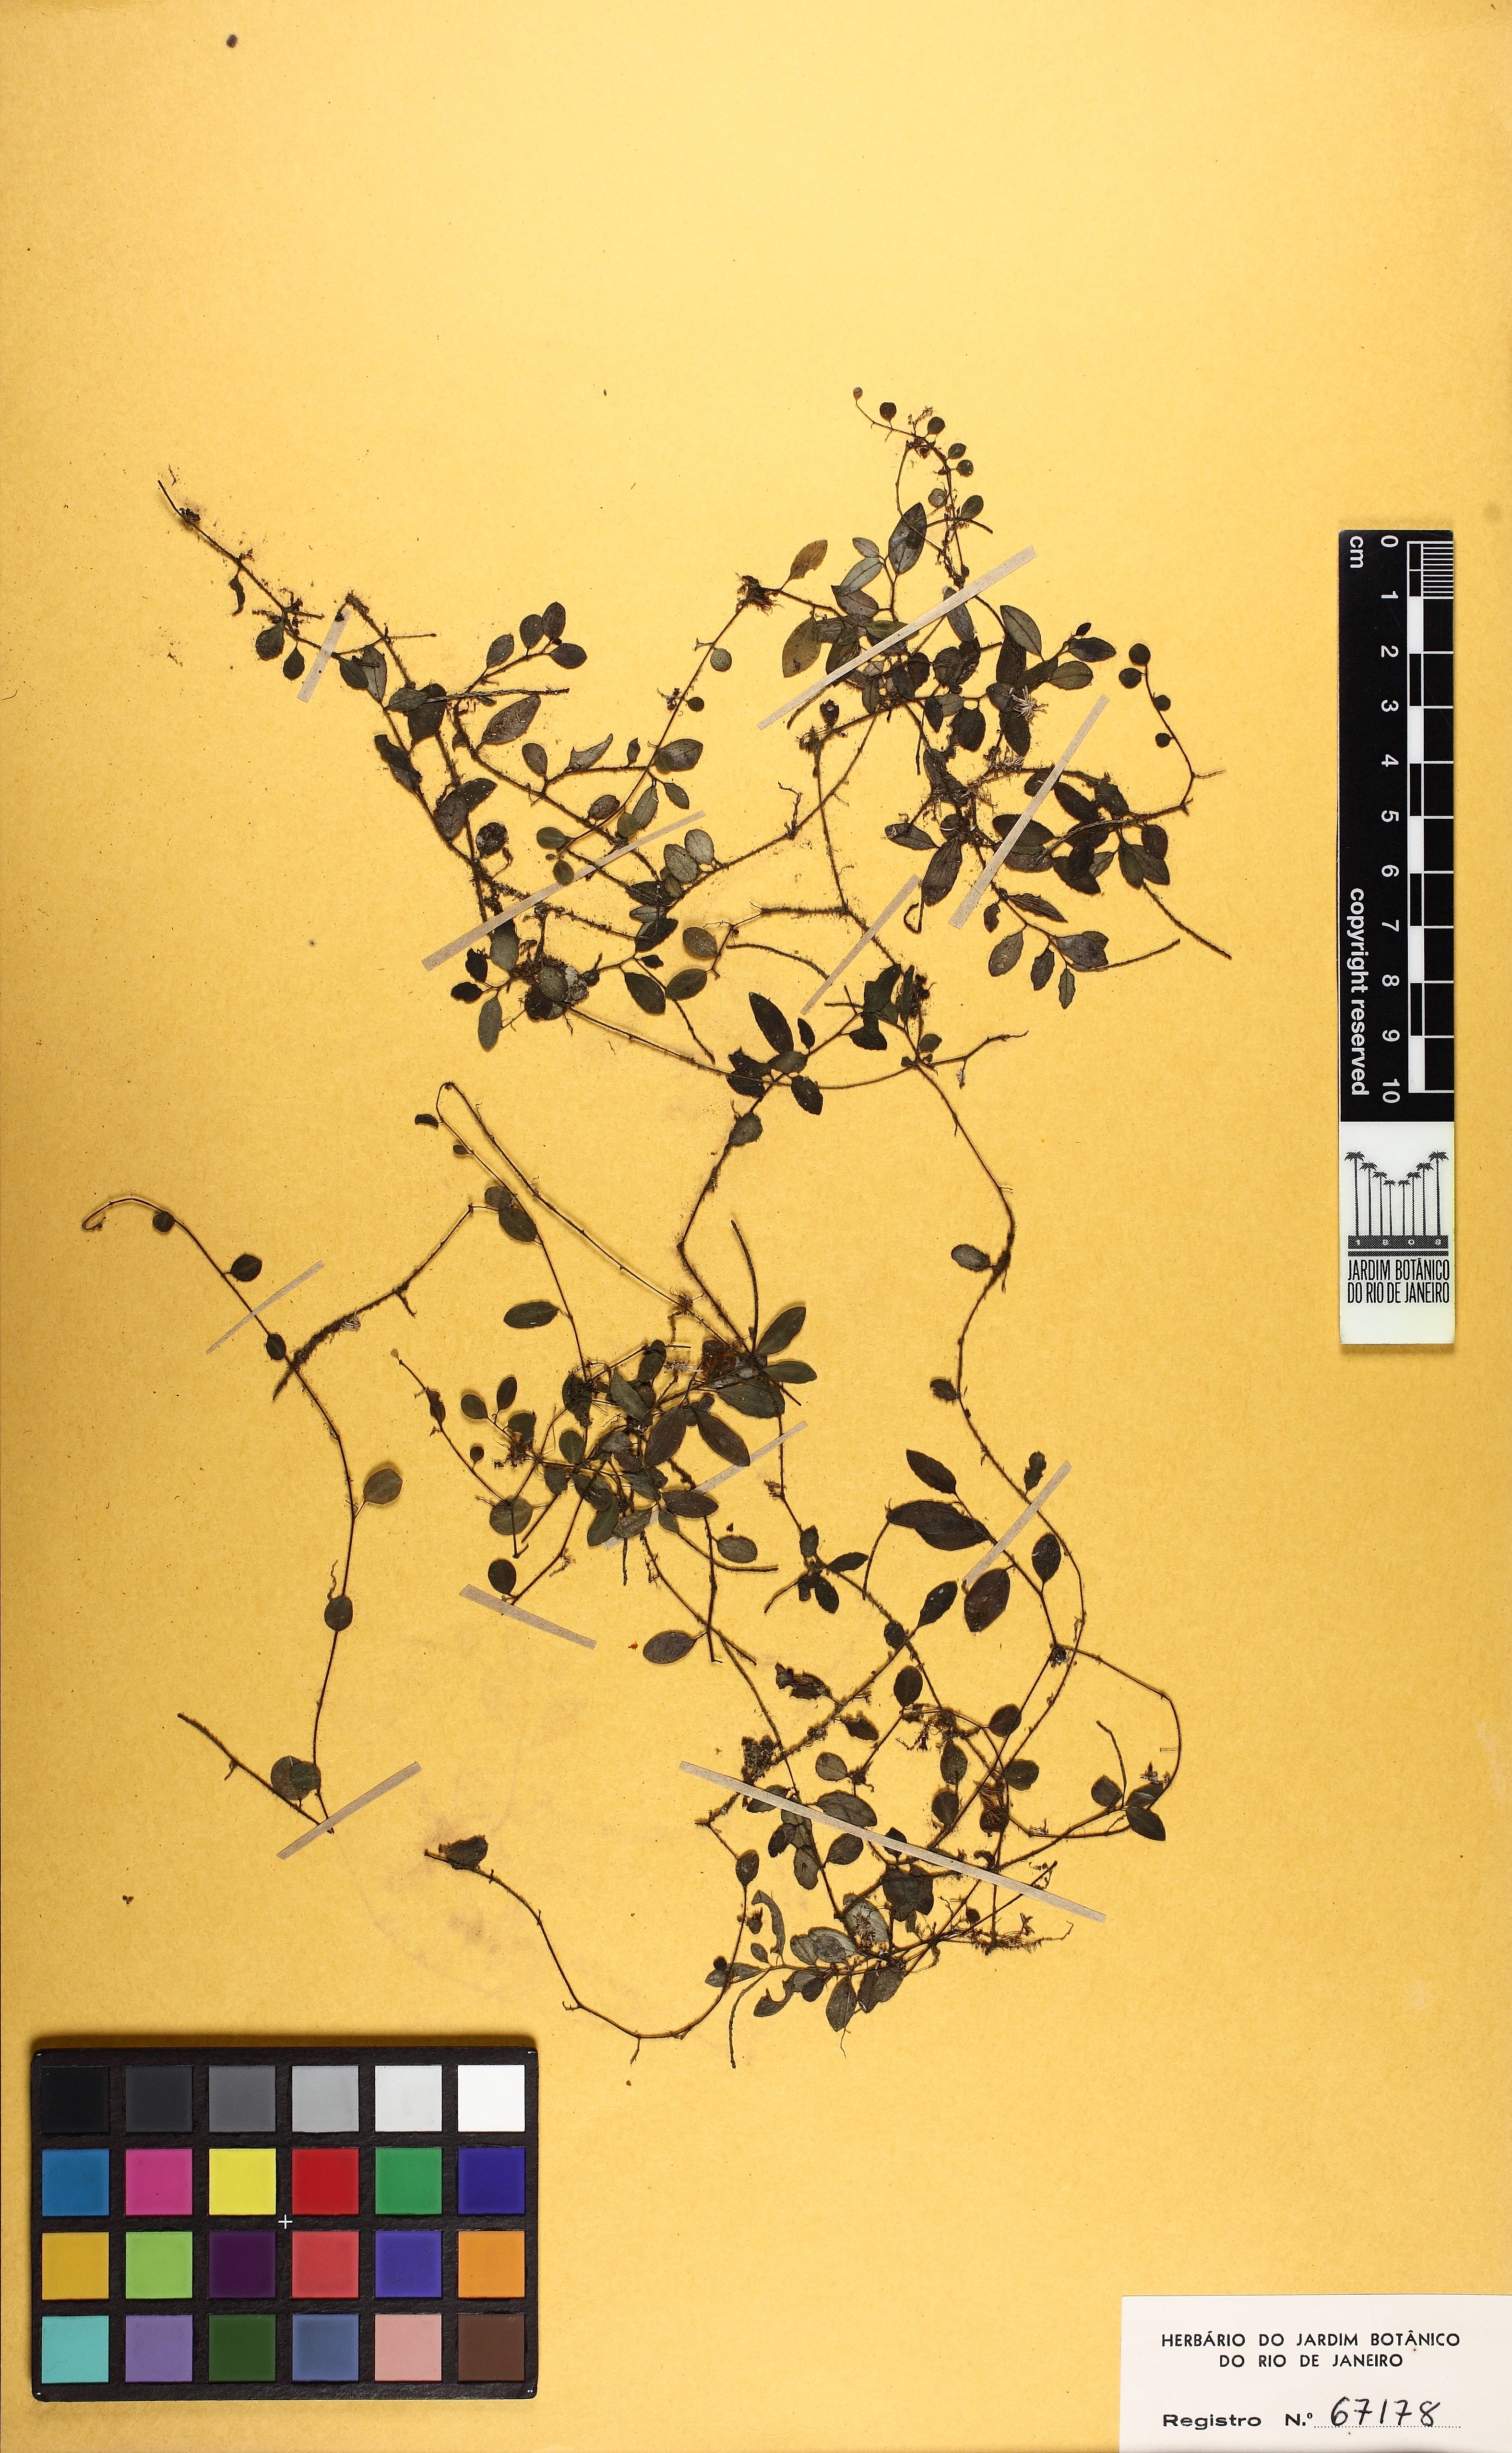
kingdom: Plantae
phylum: Tracheophyta
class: Magnoliopsida
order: Piperales
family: Piperaceae
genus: Peperomia
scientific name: Peperomia pilicaulis
